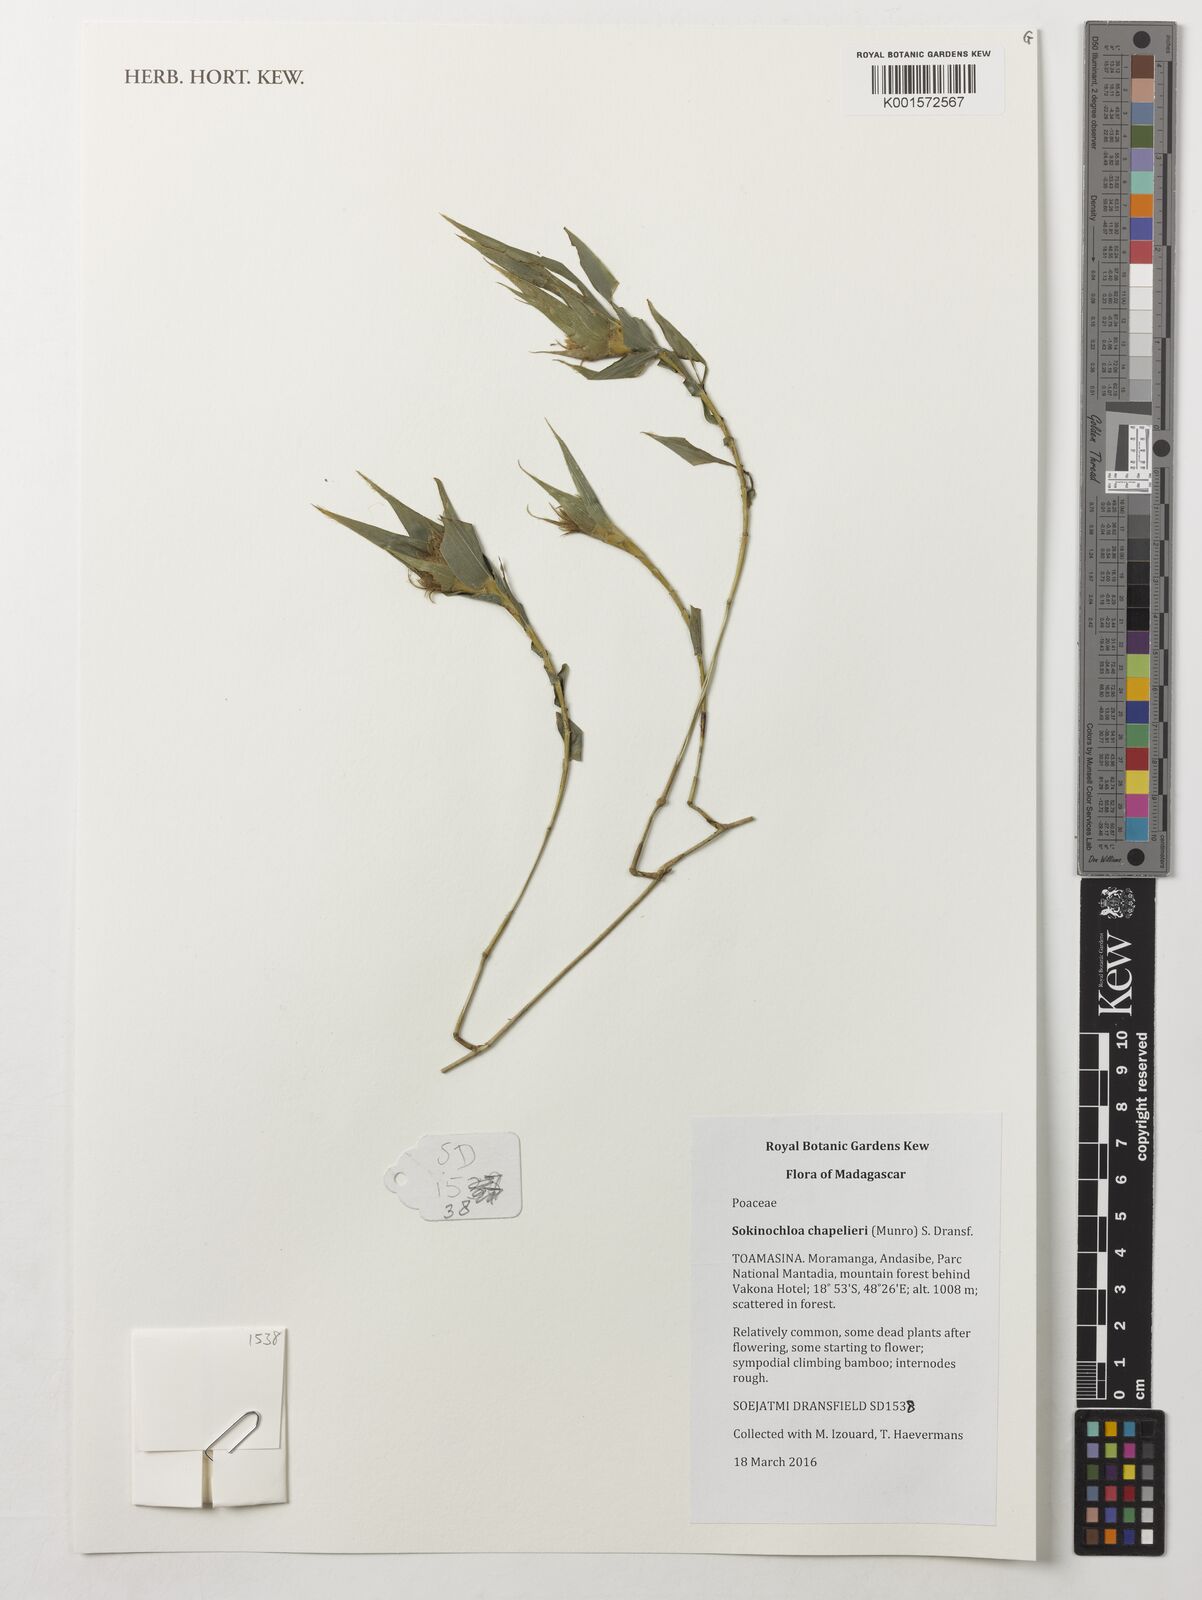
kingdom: Plantae
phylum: Tracheophyta
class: Liliopsida
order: Poales
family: Poaceae
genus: Sokinochloa
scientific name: Sokinochloa chapelieri
